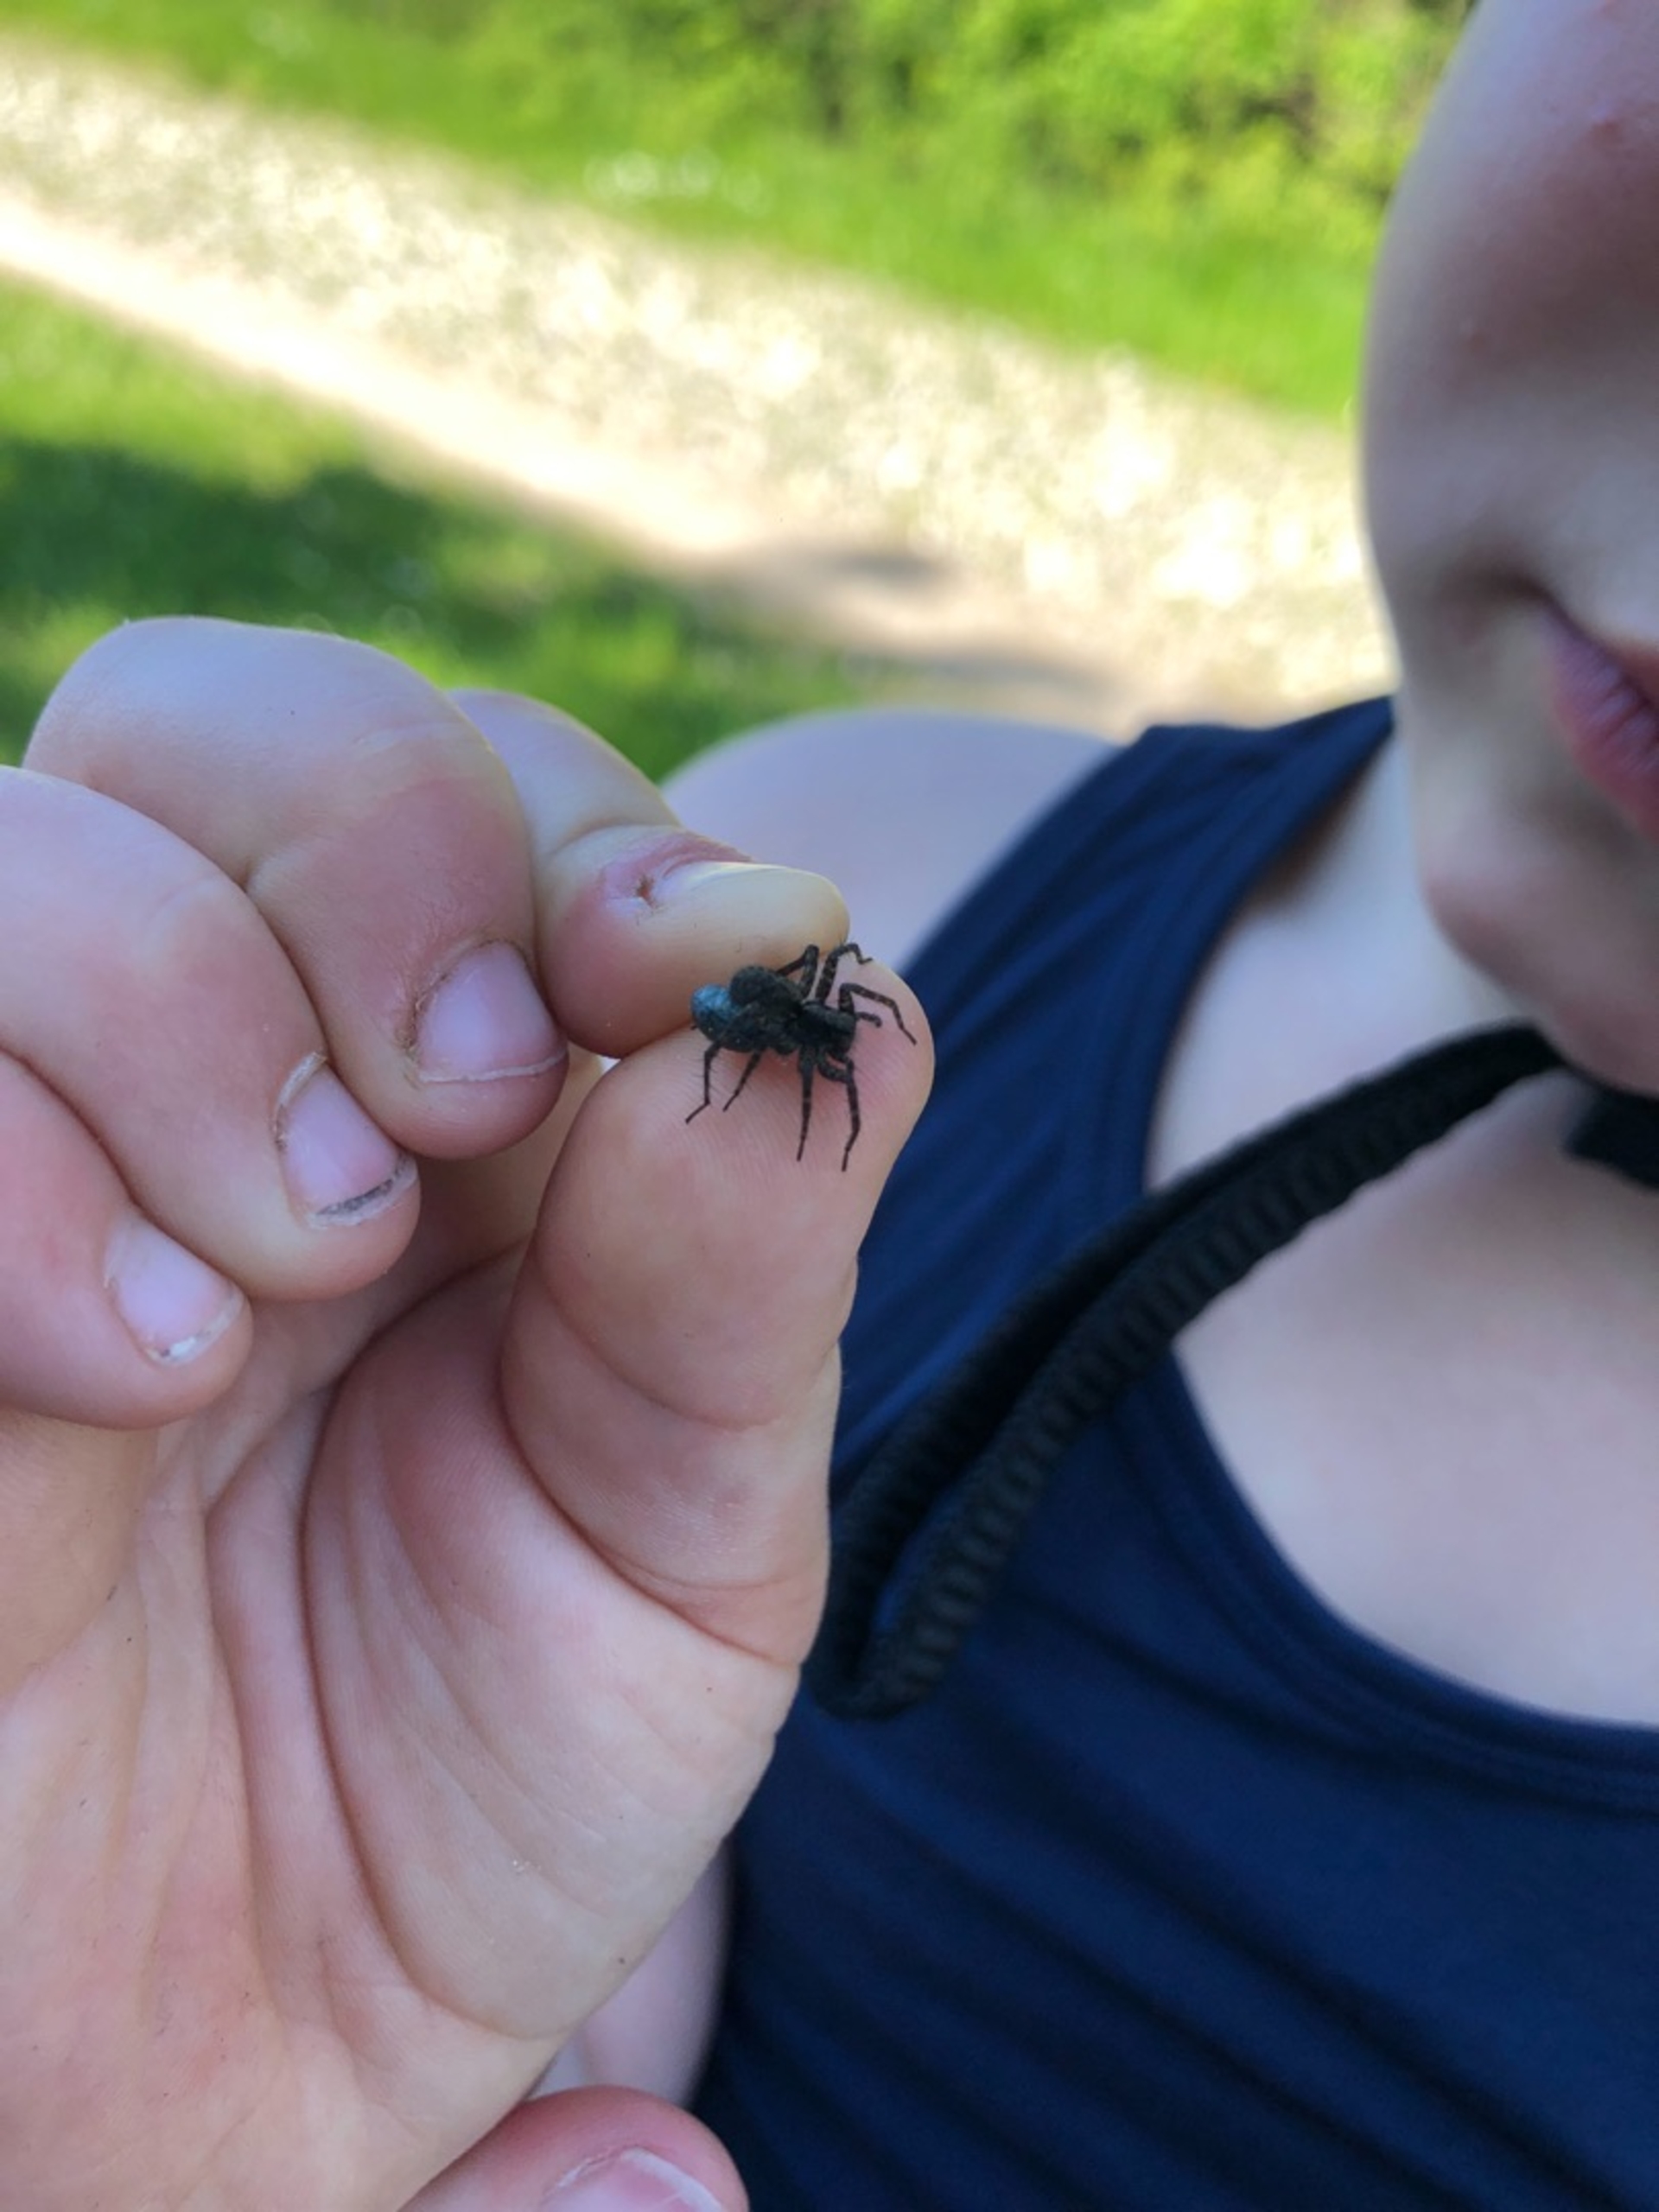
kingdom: Animalia
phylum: Arthropoda
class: Arachnida
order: Araneae
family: Lycosidae
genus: Pardosa
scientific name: Pardosa
